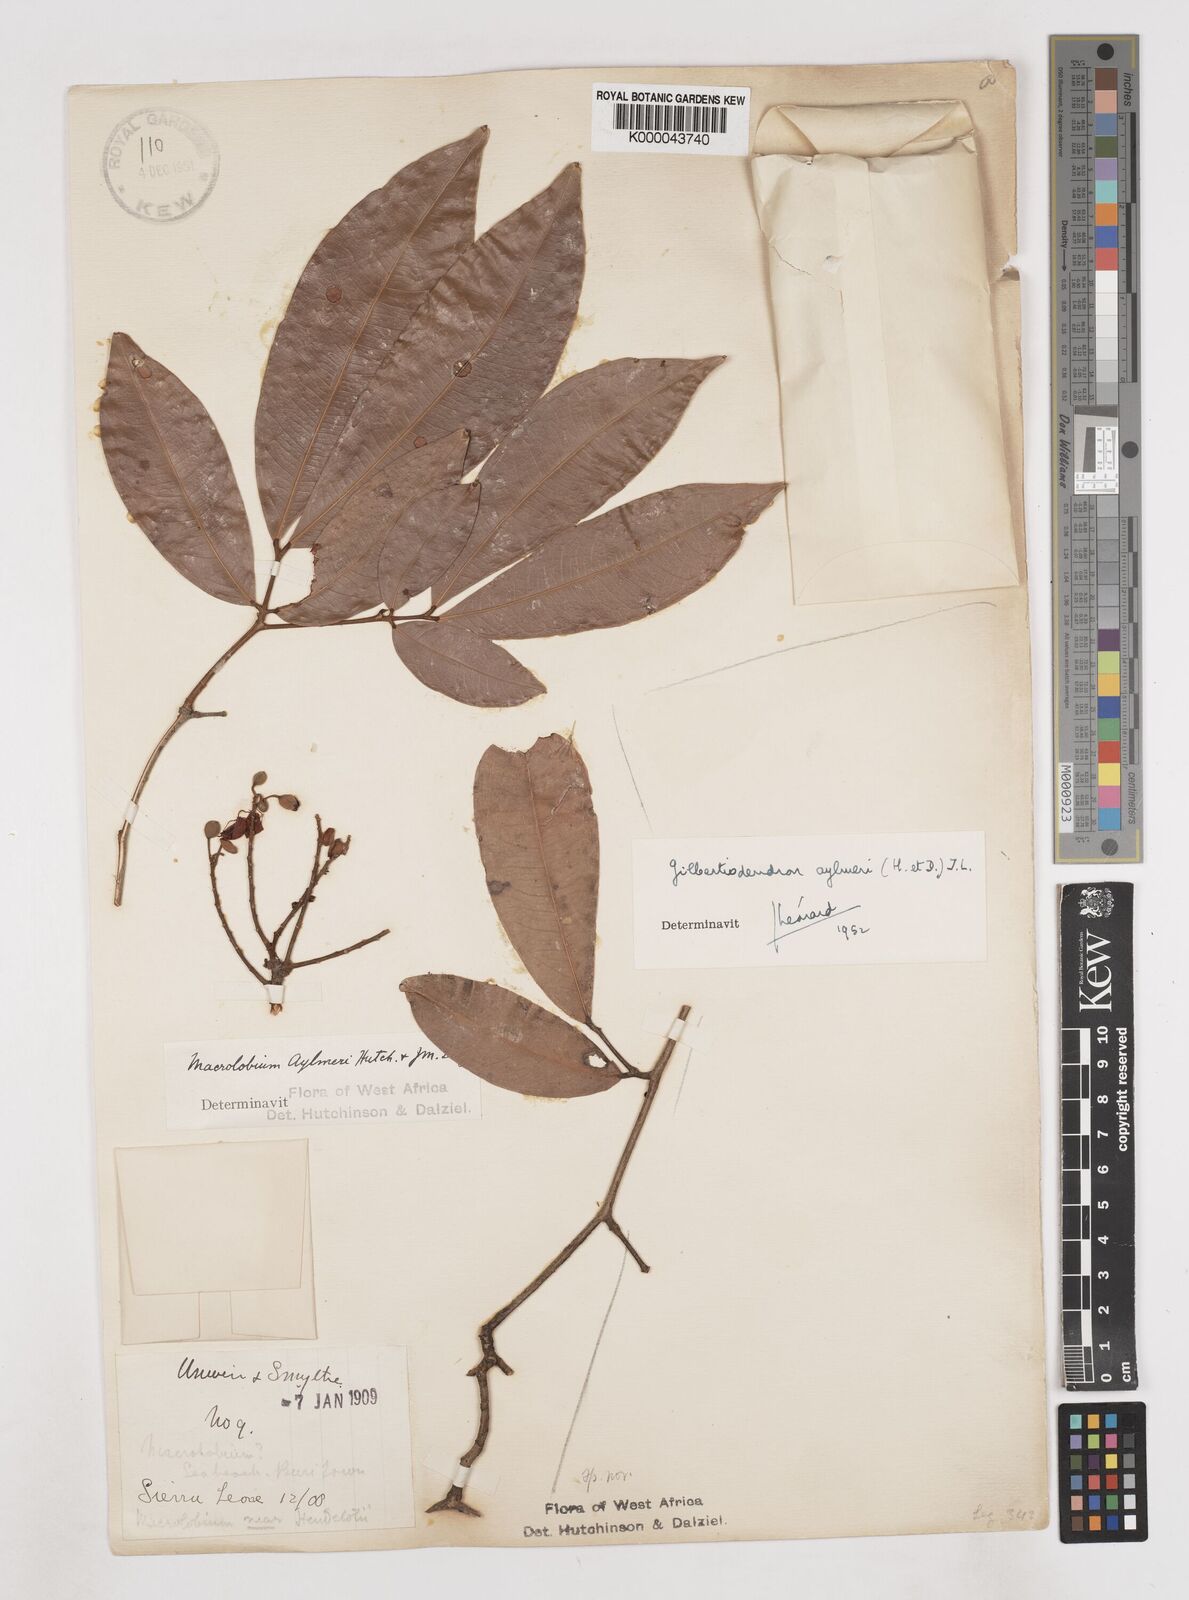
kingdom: Plantae
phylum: Tracheophyta
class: Magnoliopsida
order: Fabales
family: Fabaceae
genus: Gilbertiodendron
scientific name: Gilbertiodendron
